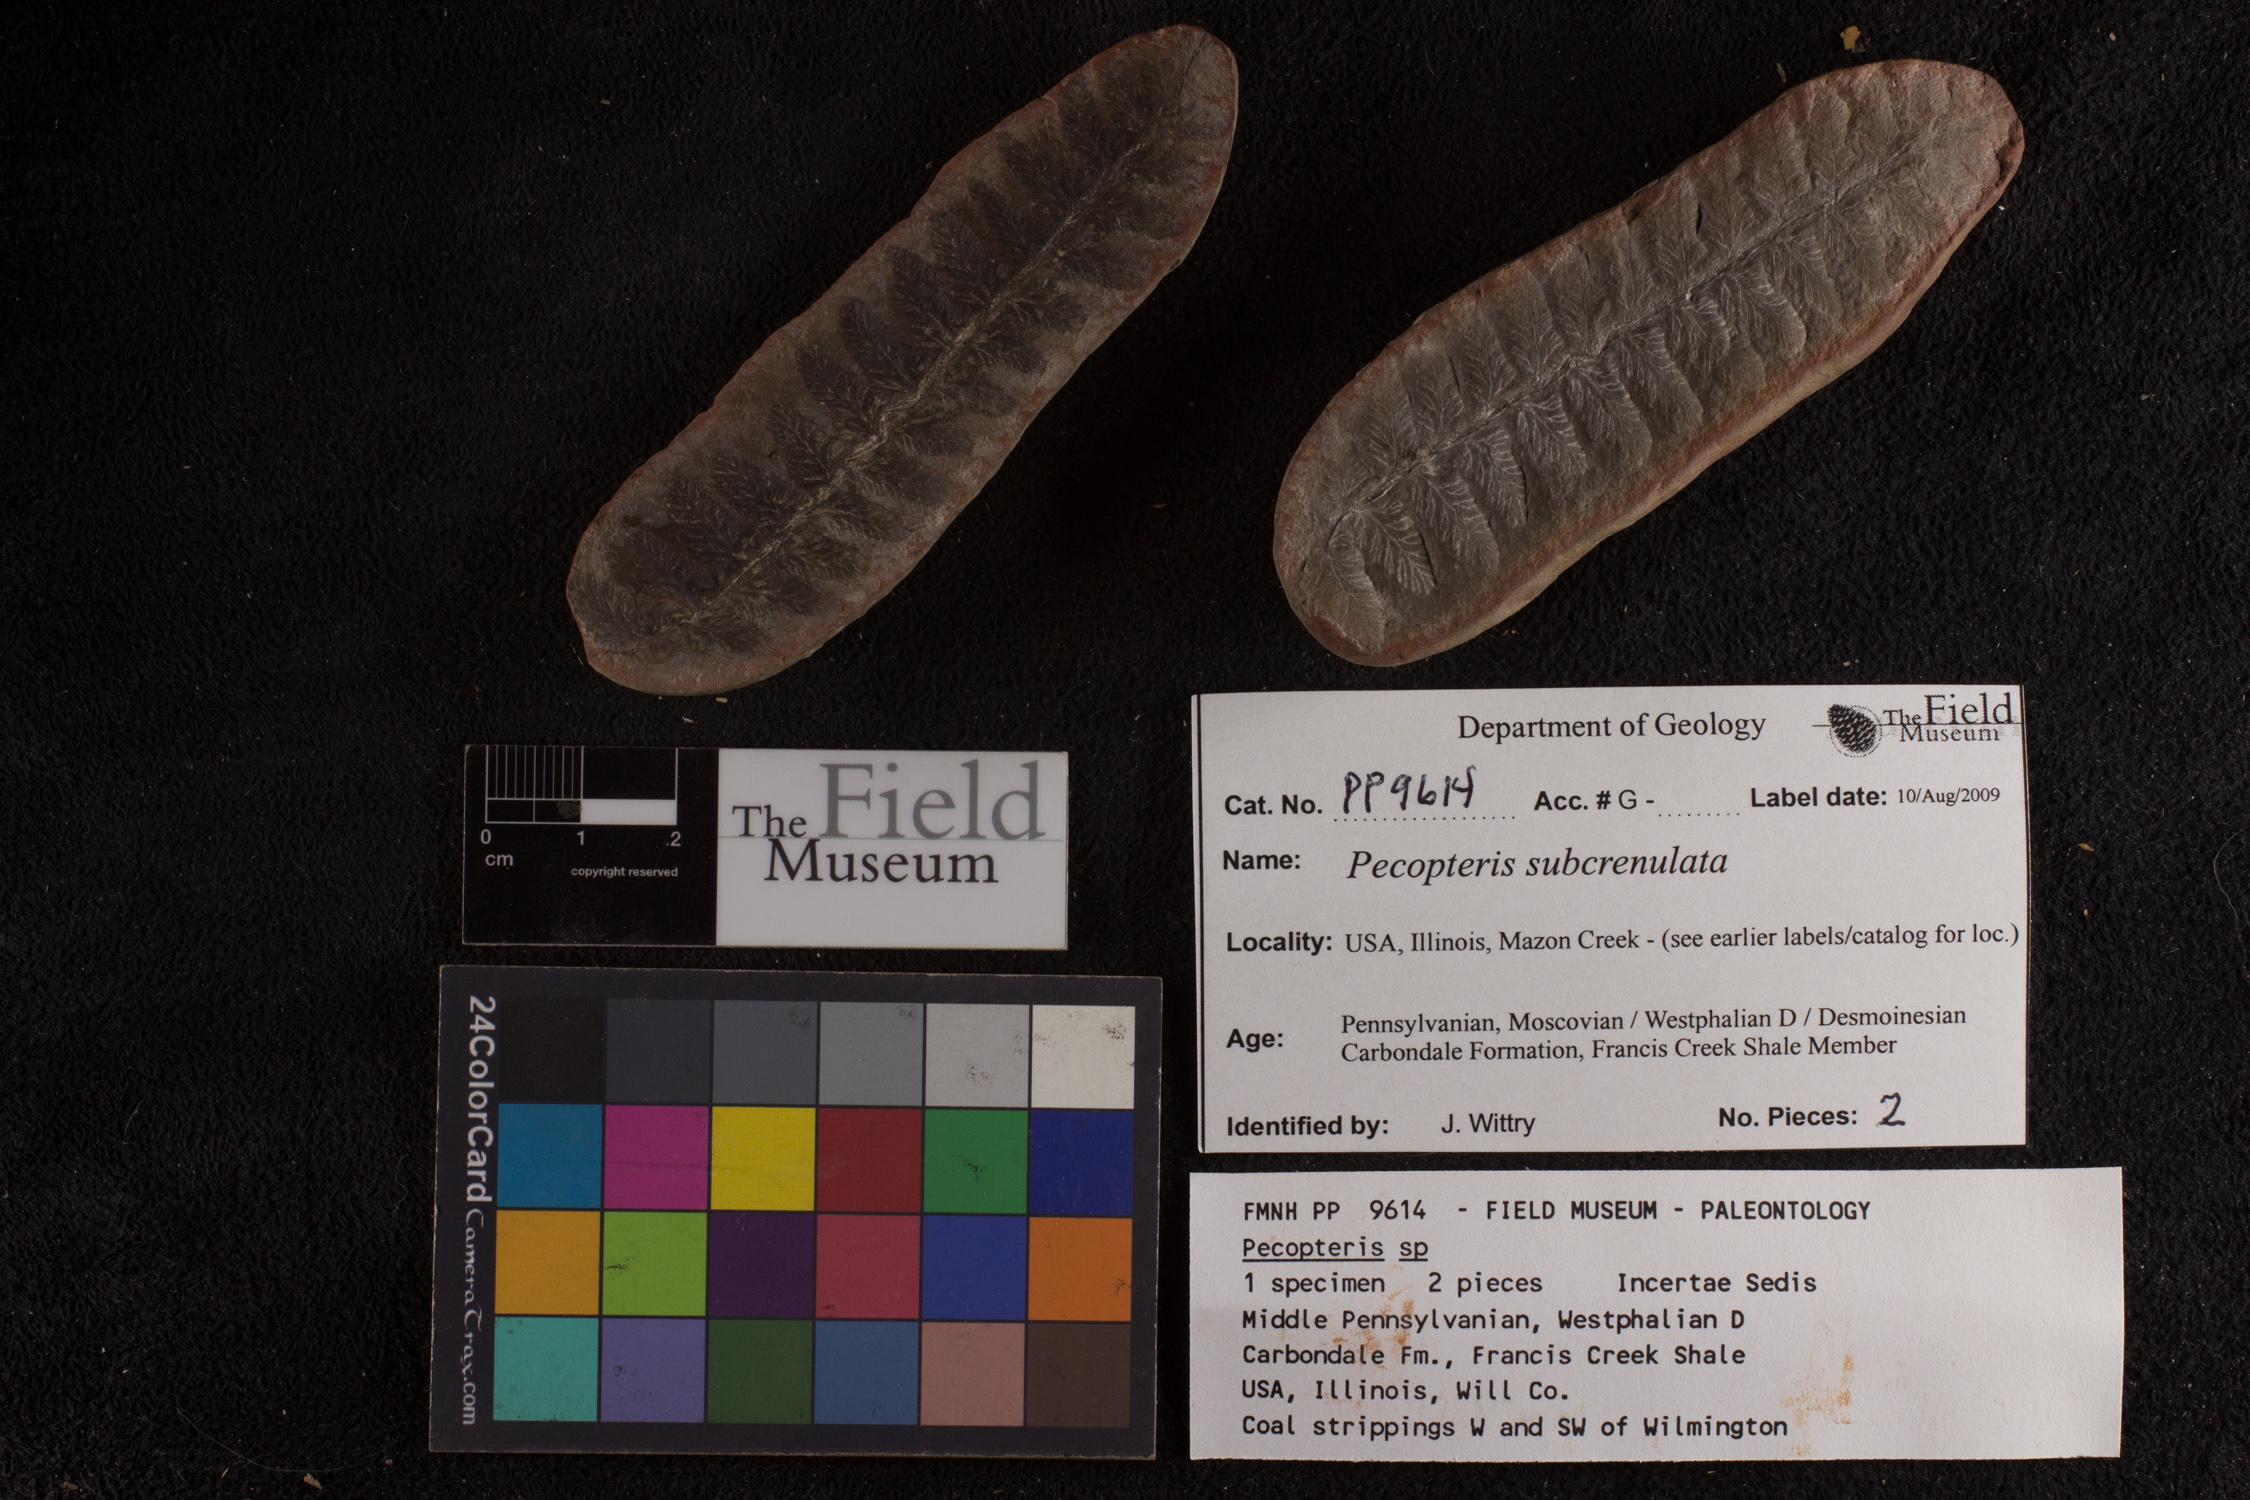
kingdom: Plantae
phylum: Tracheophyta
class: Polypodiopsida
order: Marattiales
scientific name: Marattiales
